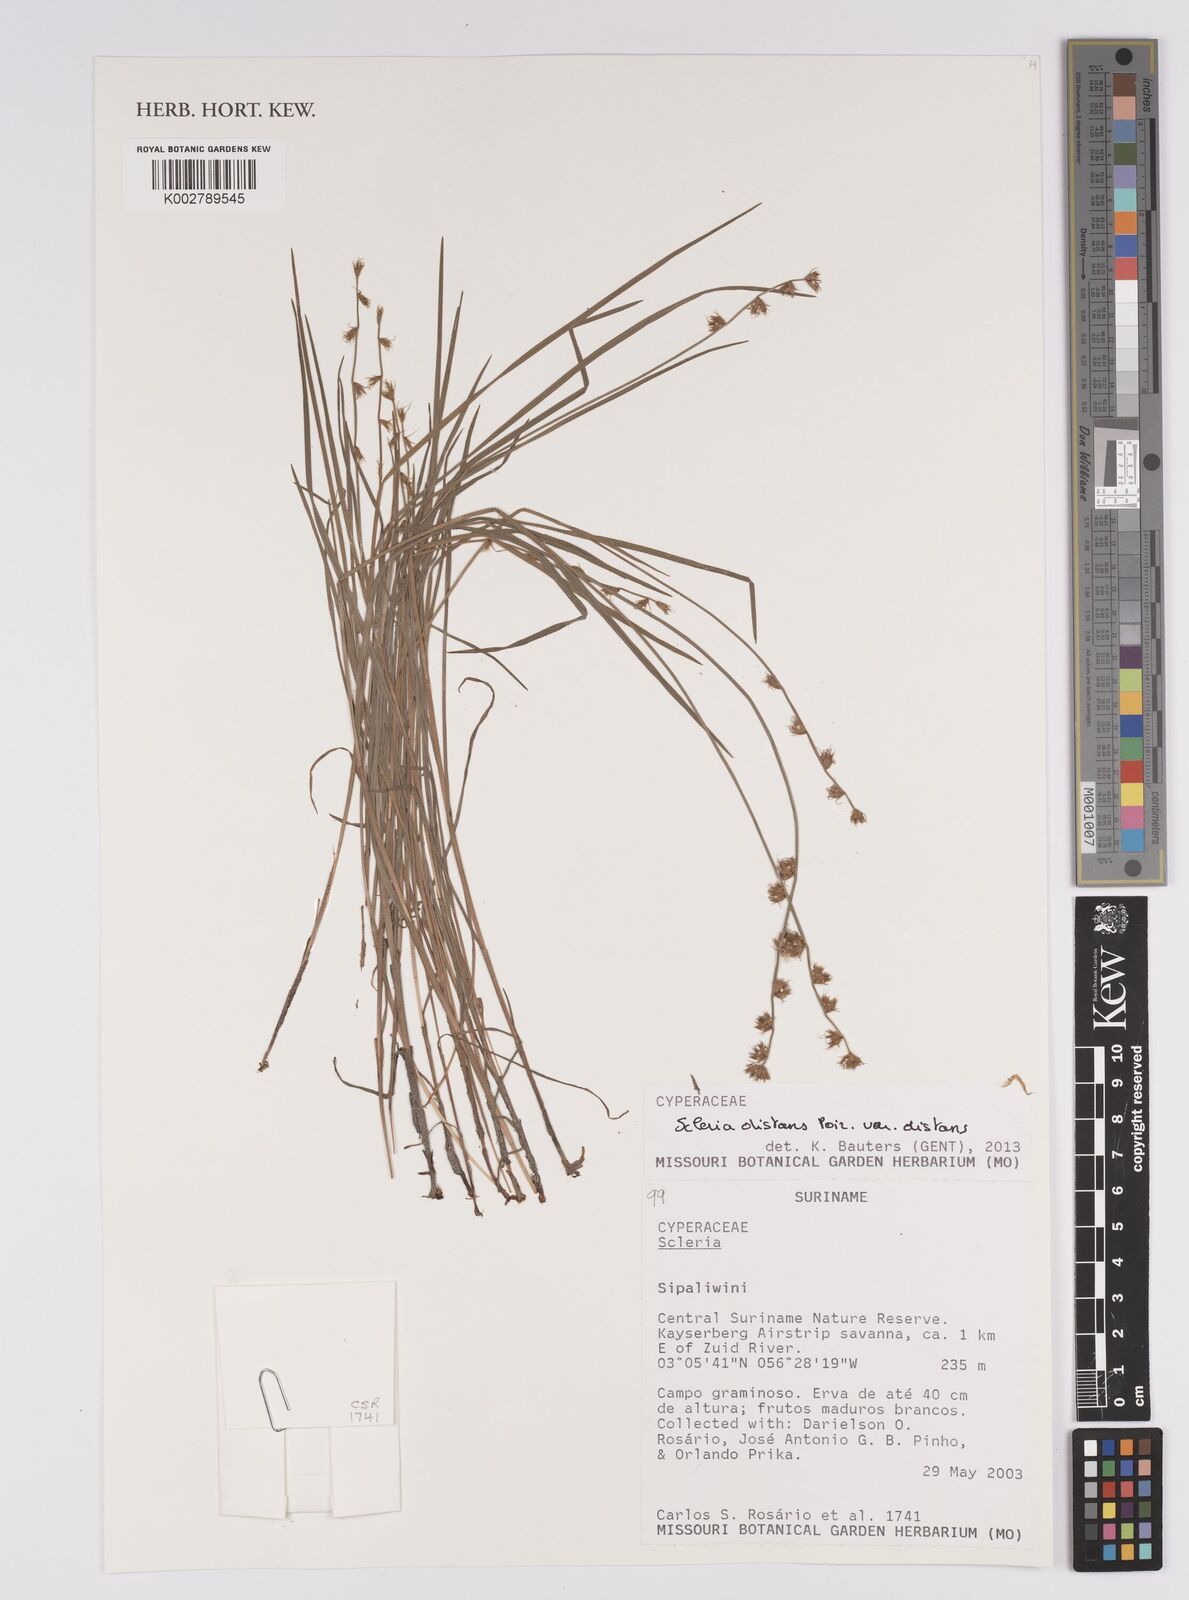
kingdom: Plantae
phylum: Tracheophyta
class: Liliopsida
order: Poales
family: Cyperaceae
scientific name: Cyperaceae
